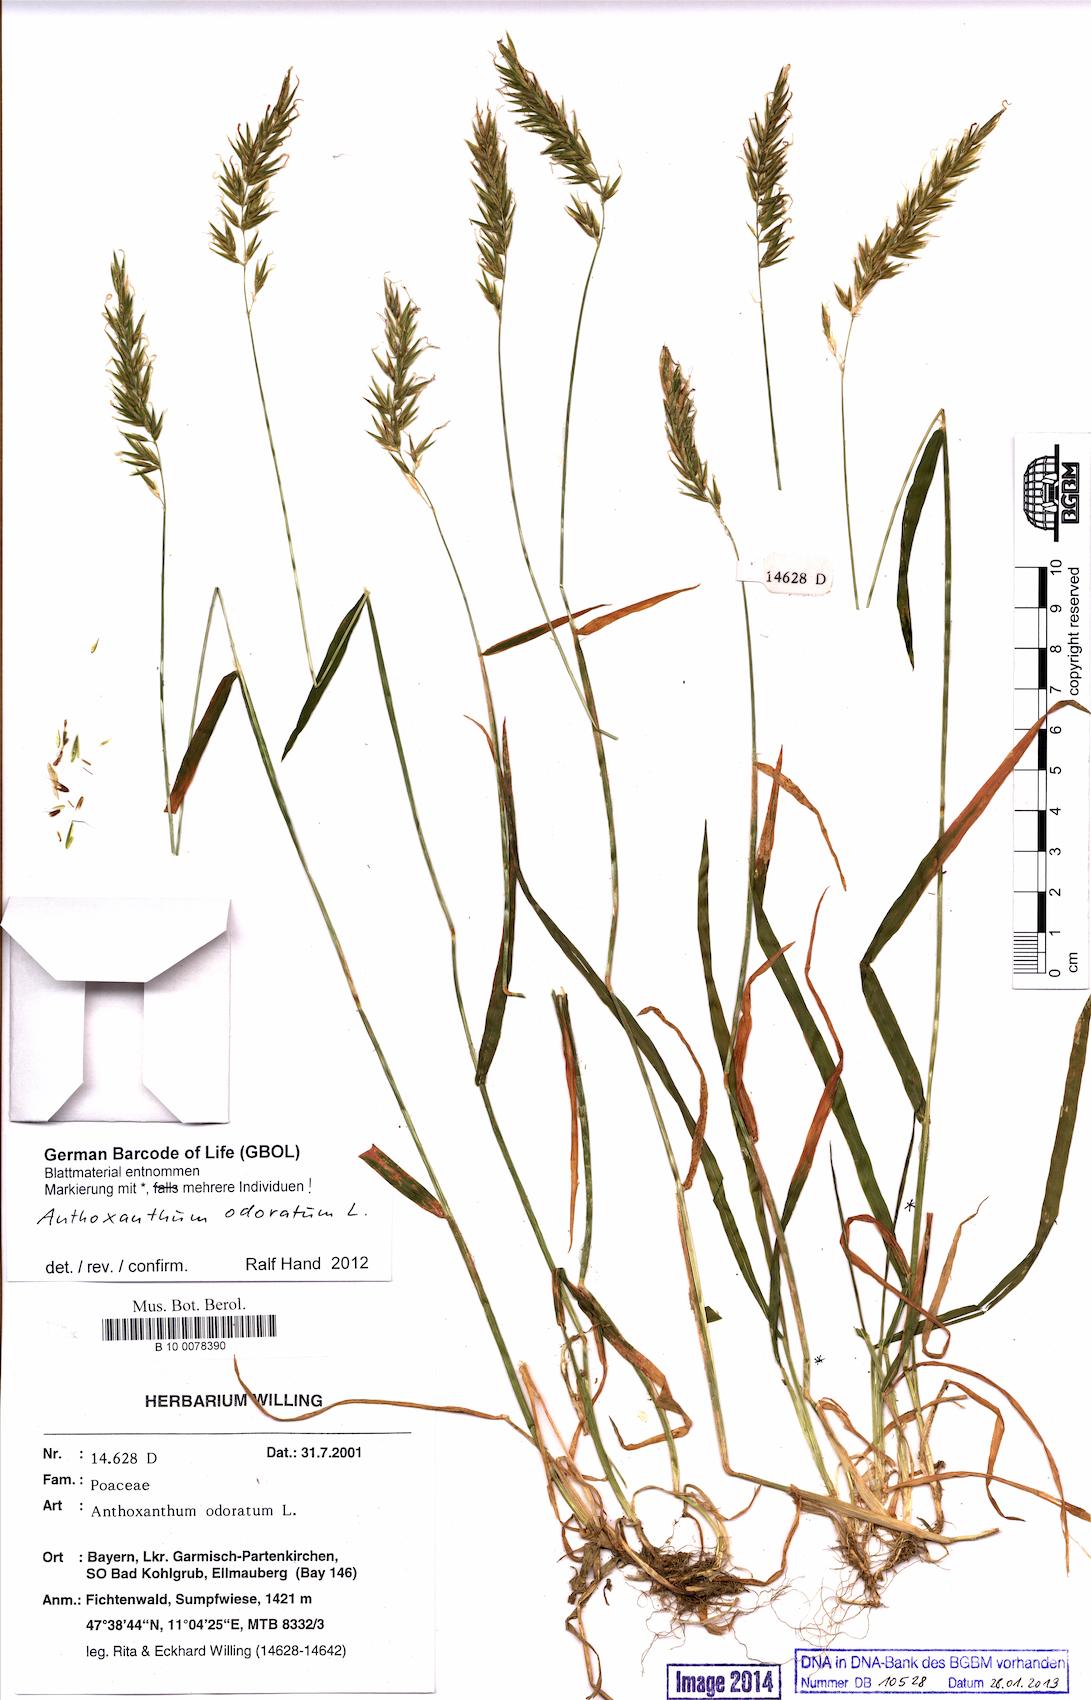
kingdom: Plantae
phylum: Tracheophyta
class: Liliopsida
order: Poales
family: Poaceae
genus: Anthoxanthum
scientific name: Anthoxanthum odoratum
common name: Sweet vernalgrass
